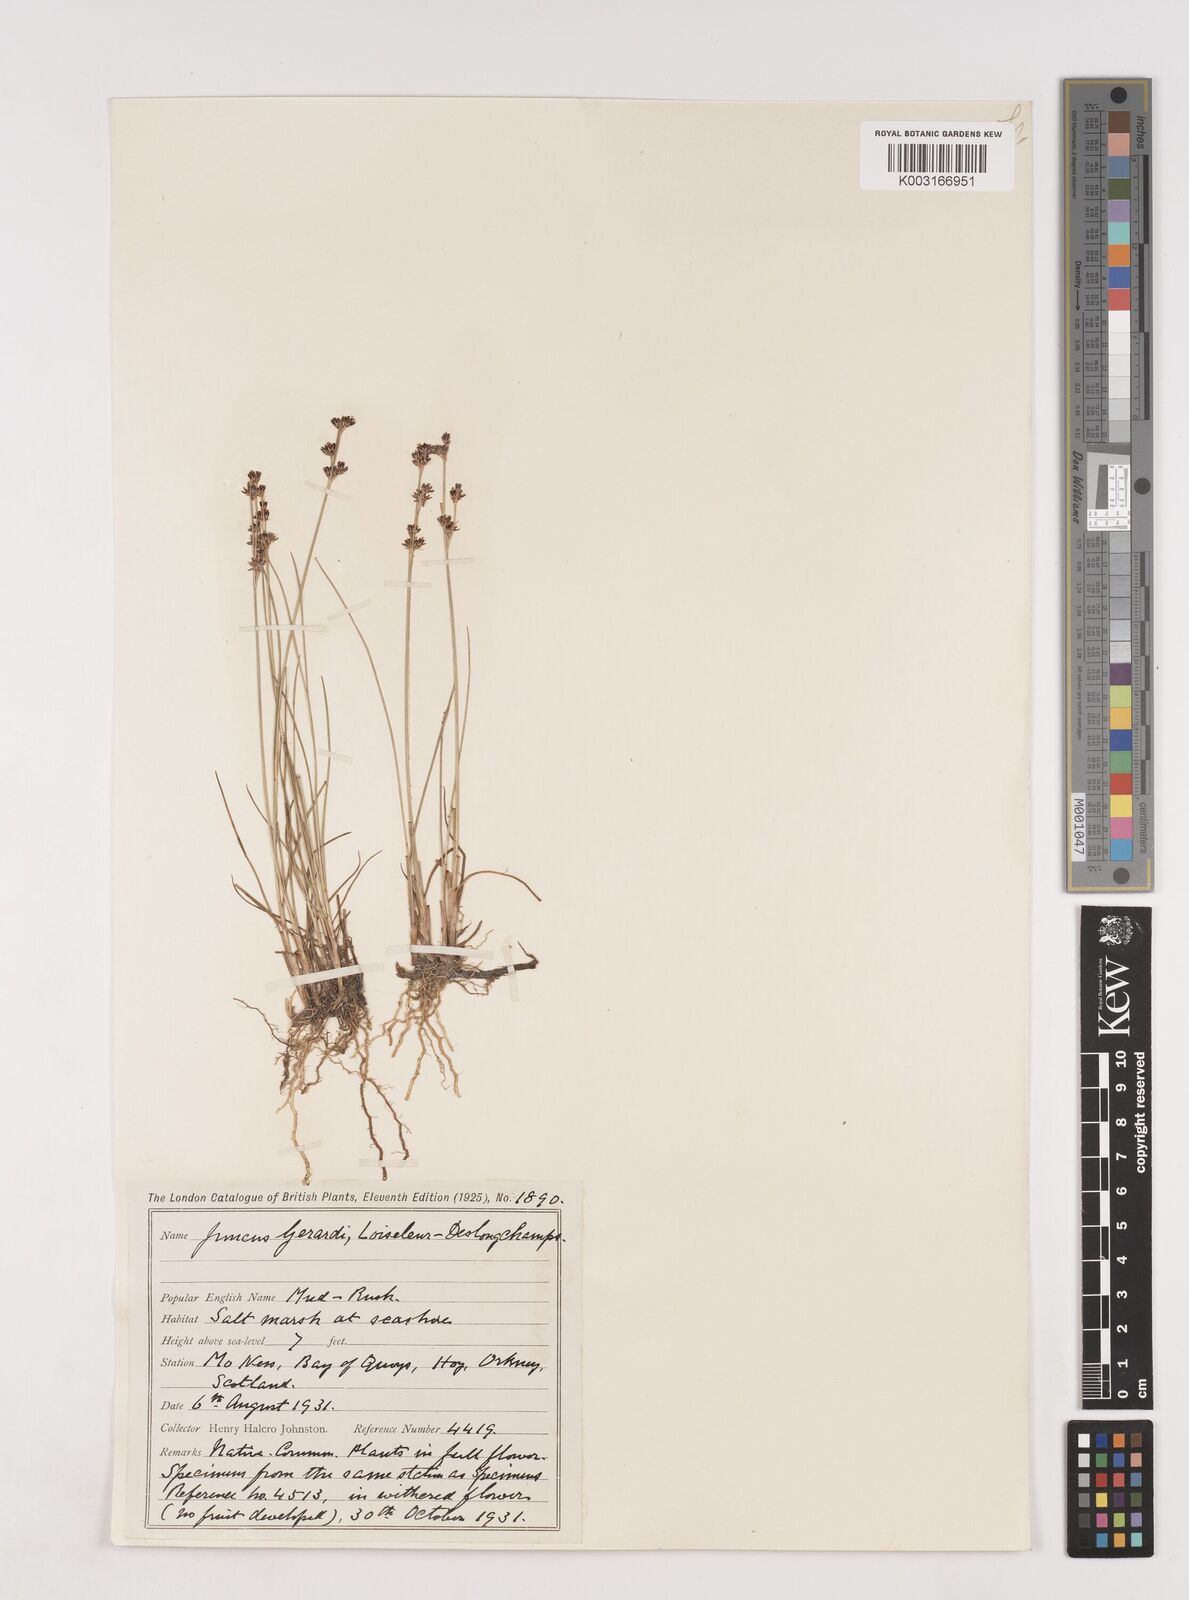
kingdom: Plantae
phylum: Tracheophyta
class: Liliopsida
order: Poales
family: Juncaceae
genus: Juncus
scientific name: Juncus gerardi
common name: Saltmarsh rush
